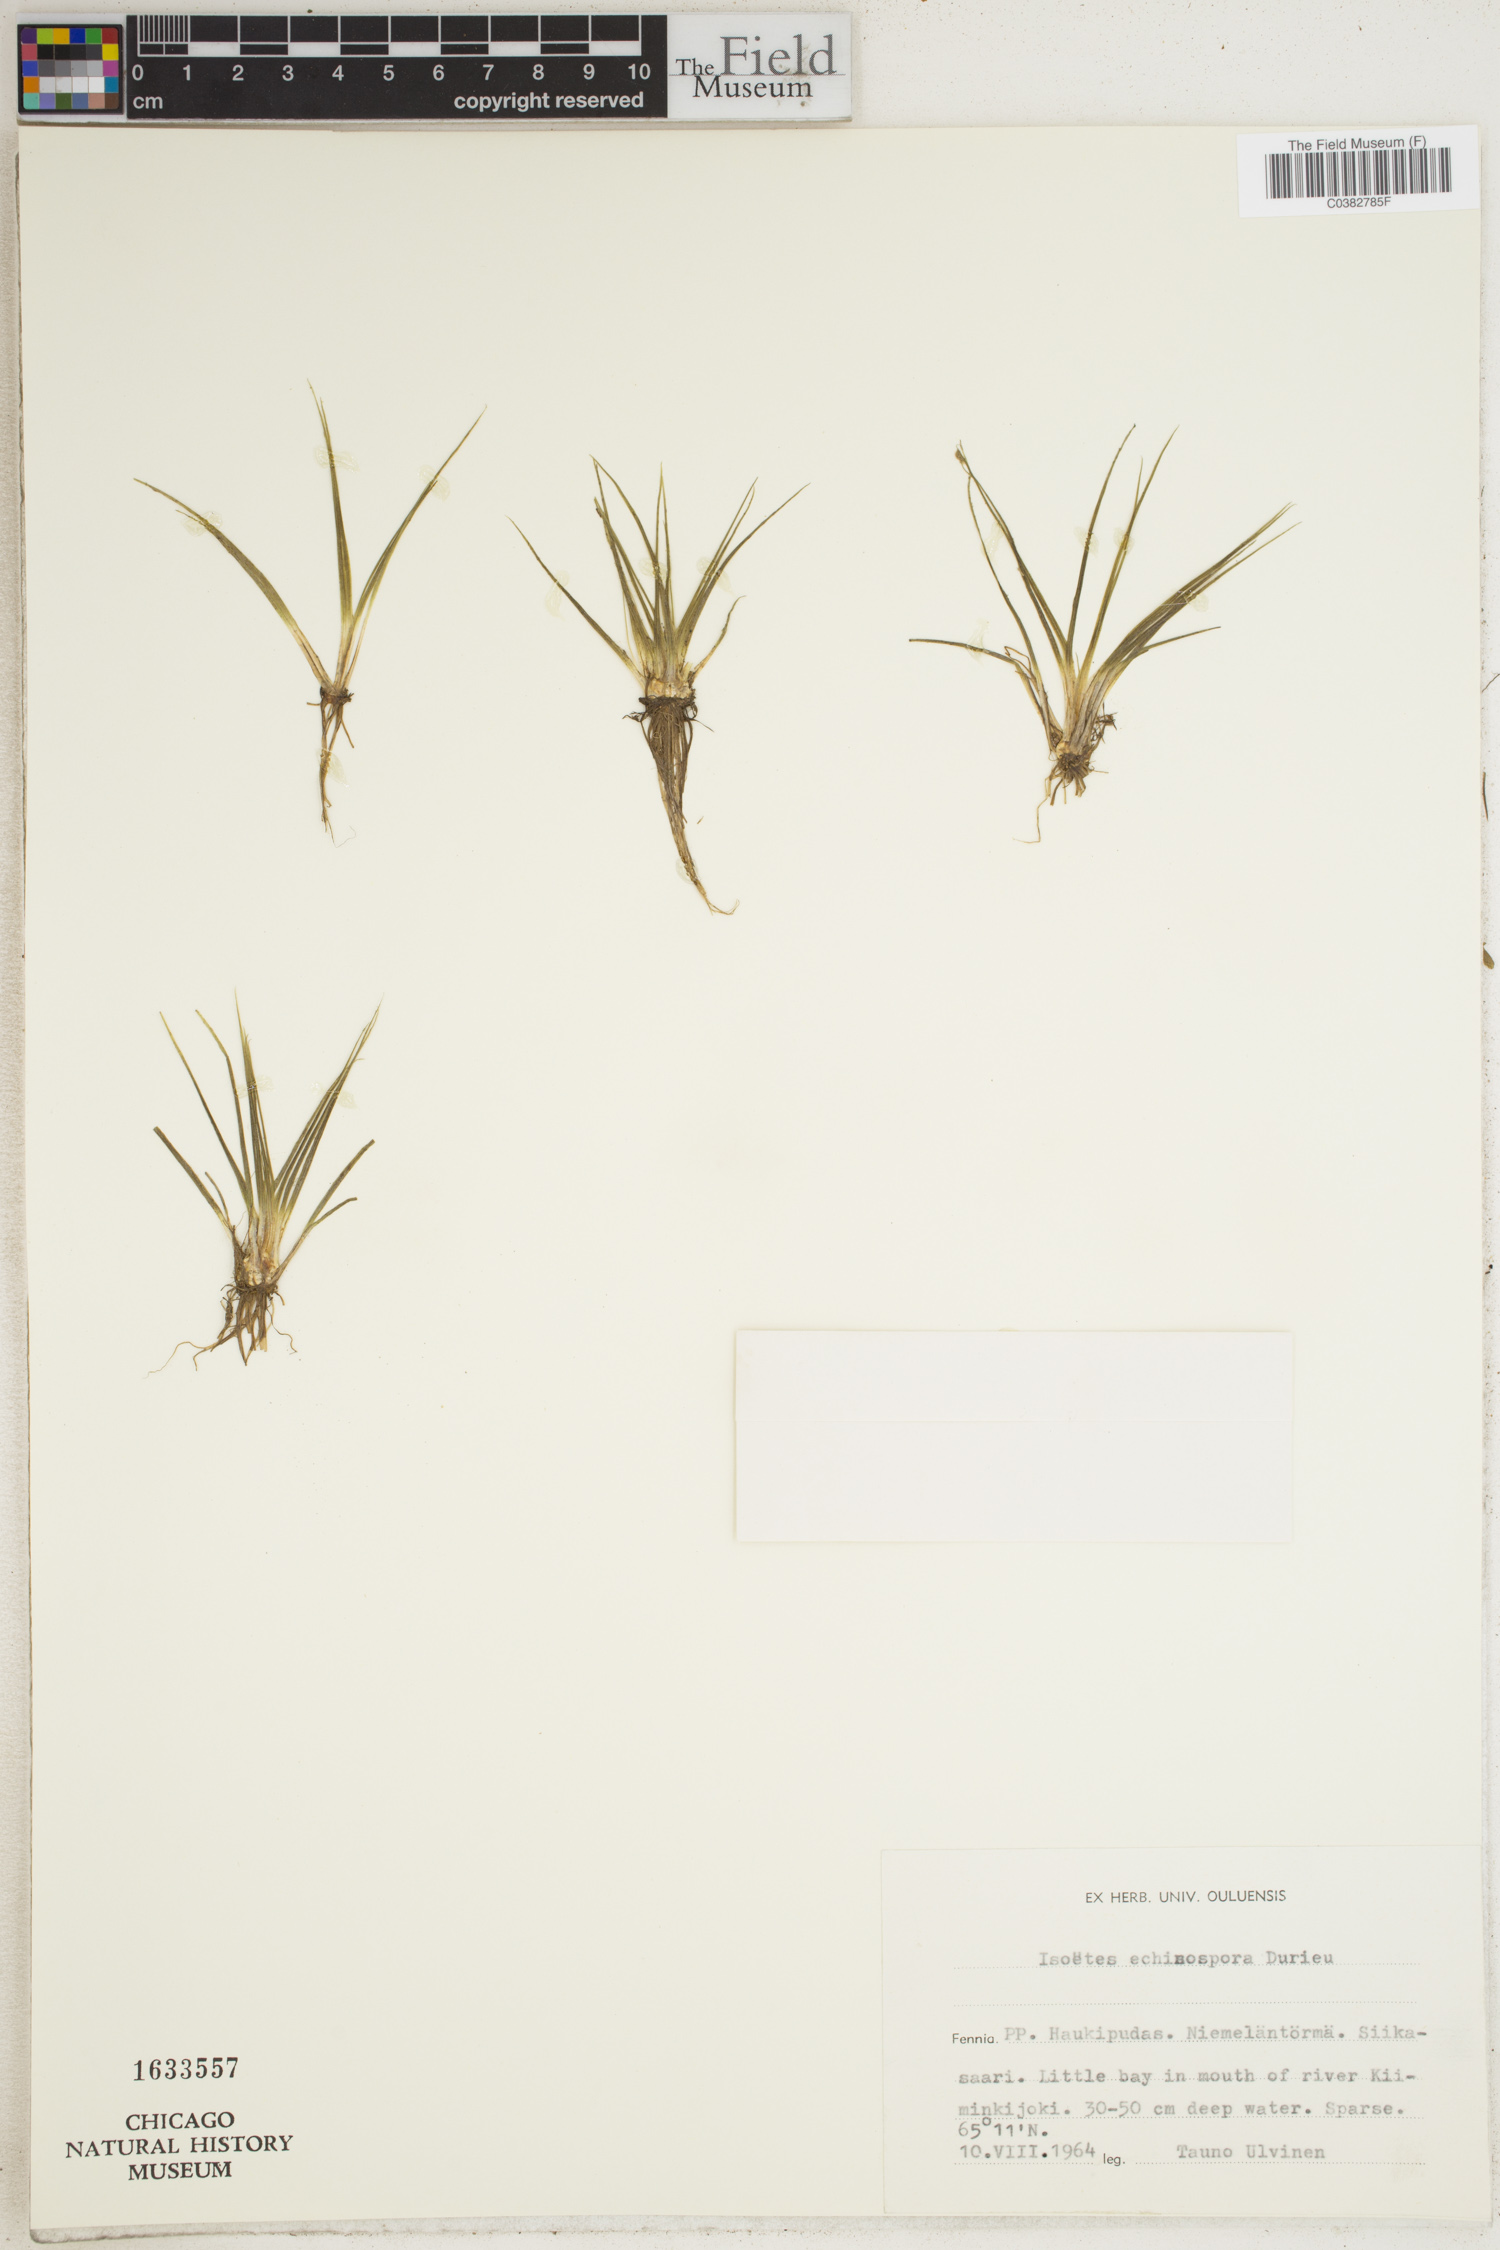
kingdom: Plantae
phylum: Tracheophyta
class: Lycopodiopsida
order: Isoetales
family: Isoetaceae
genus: Isoetes
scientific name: Isoetes echinospora
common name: Spring quillwort
